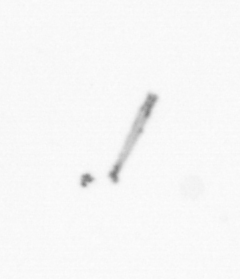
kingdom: Chromista
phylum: Ochrophyta
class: Bacillariophyceae
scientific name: Bacillariophyceae
